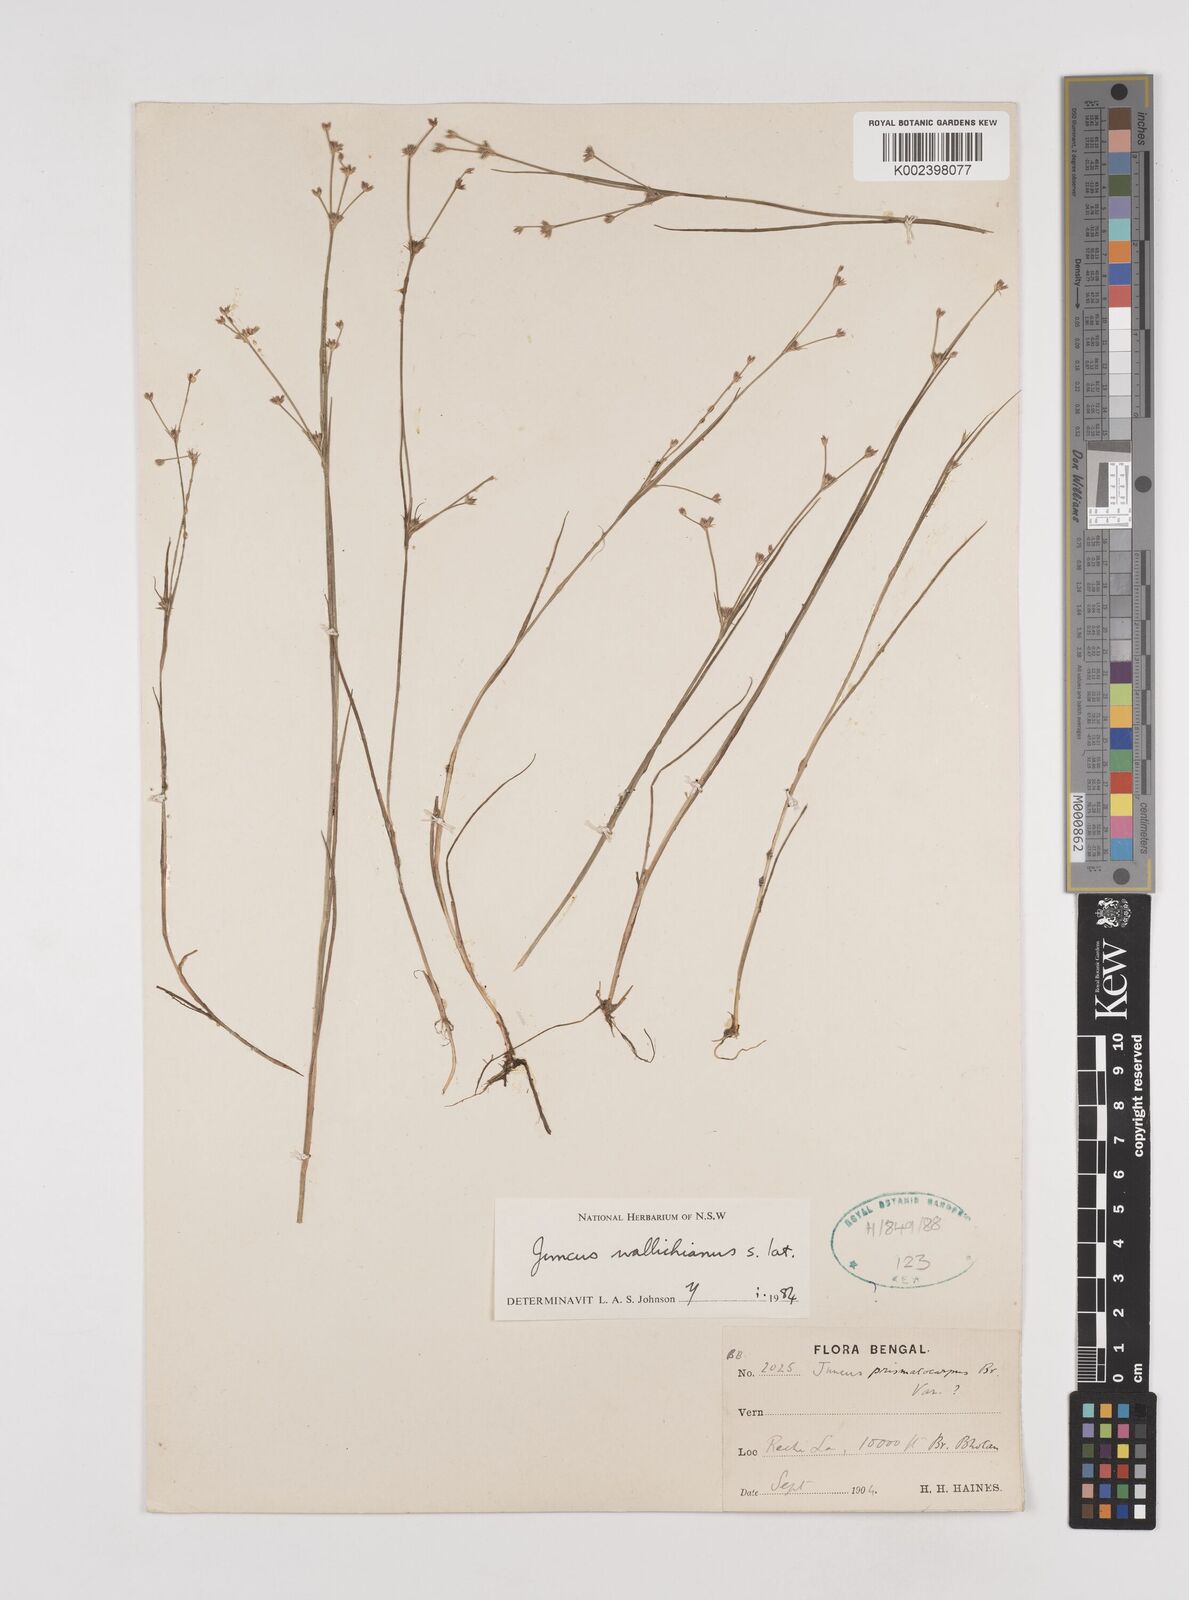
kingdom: Plantae
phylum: Tracheophyta
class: Liliopsida
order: Poales
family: Juncaceae
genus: Juncus
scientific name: Juncus wallichianus
